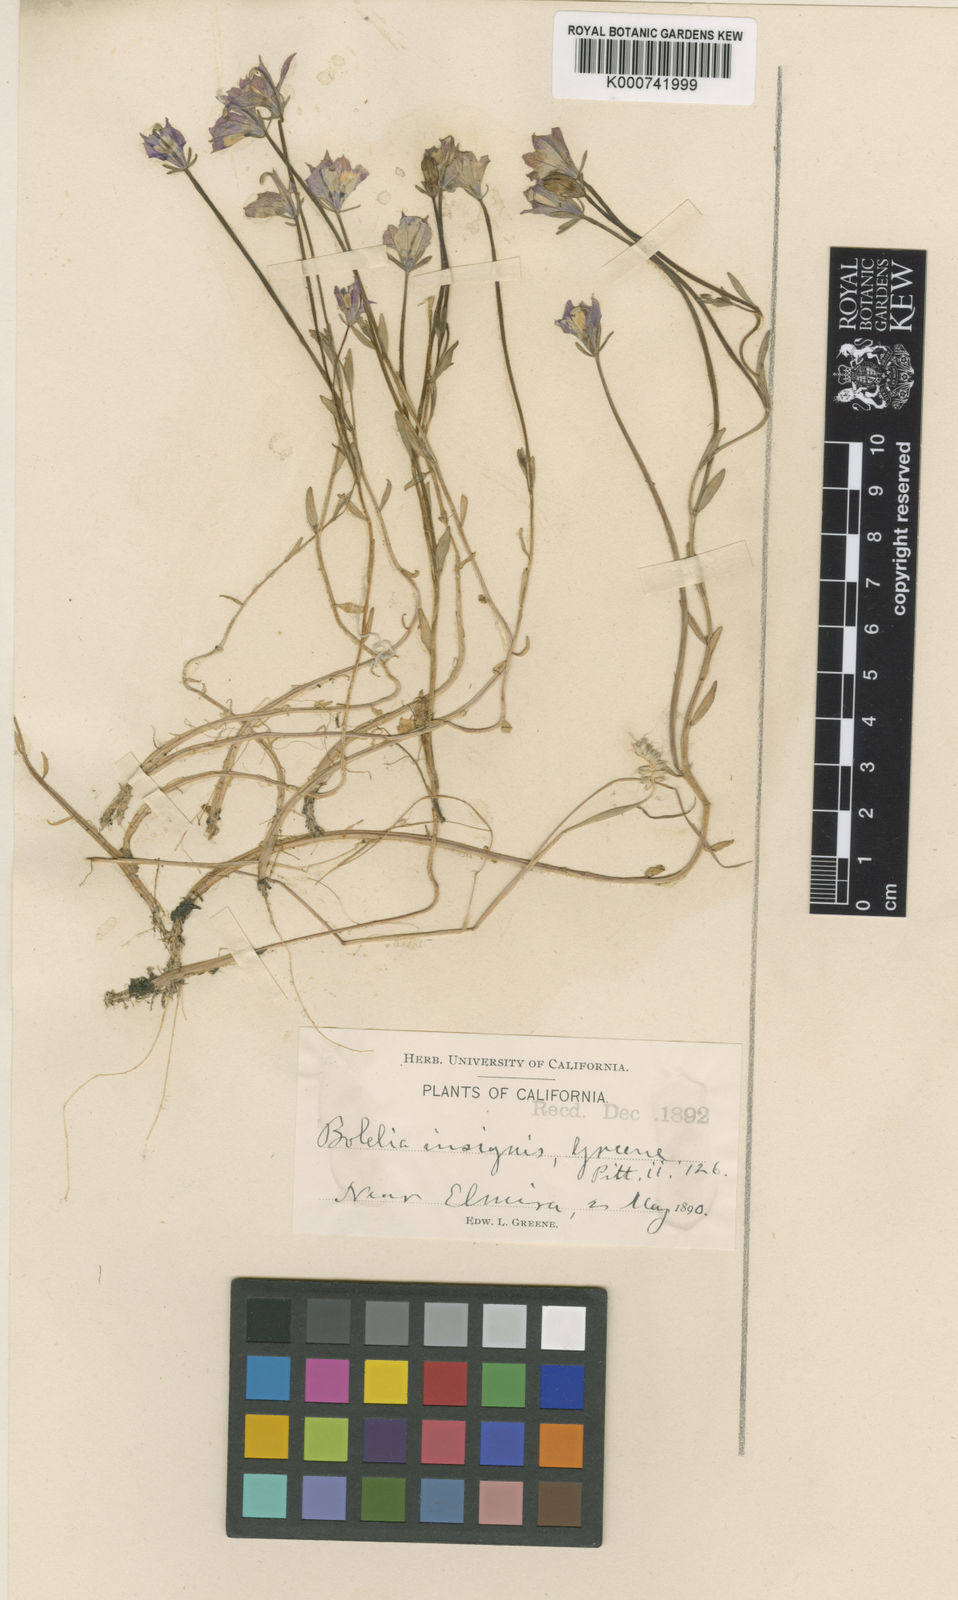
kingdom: Plantae
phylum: Tracheophyta
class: Magnoliopsida
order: Asterales
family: Campanulaceae
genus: Downingia
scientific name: Downingia insignis
